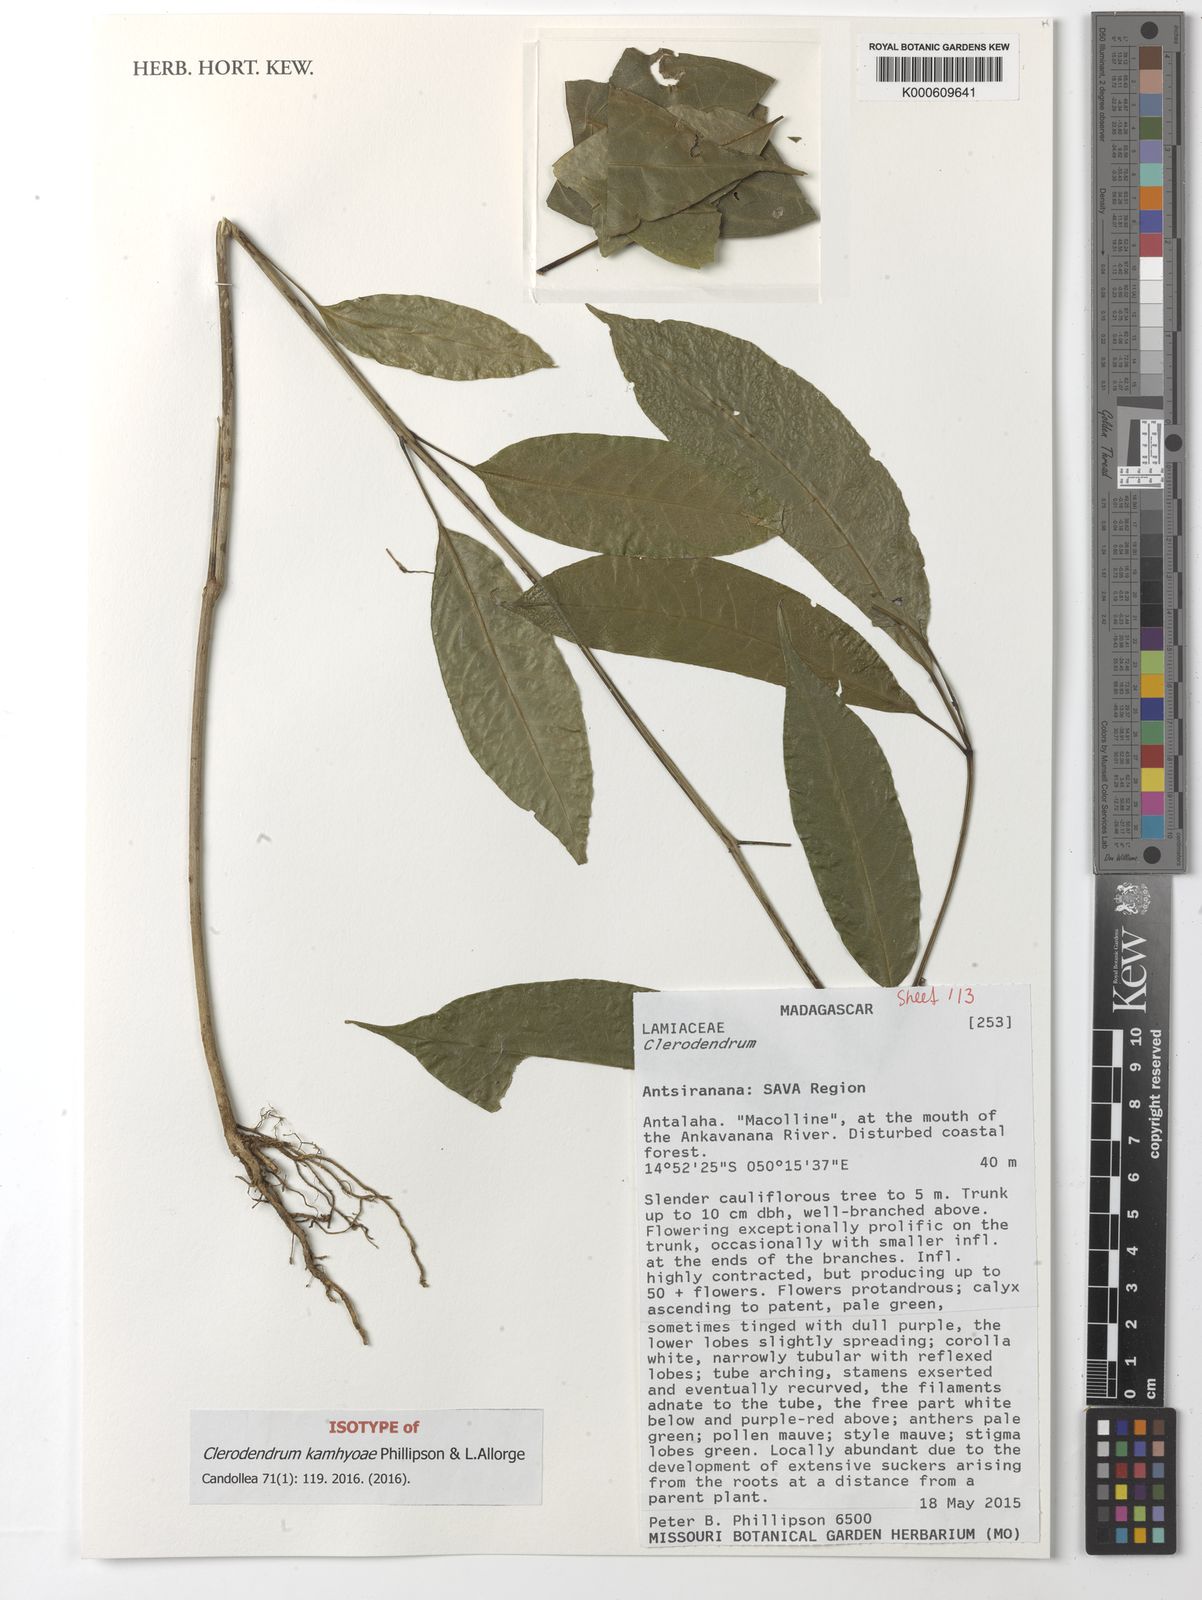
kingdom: Plantae
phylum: Tracheophyta
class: Magnoliopsida
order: Lamiales
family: Lamiaceae
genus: Clerodendrum
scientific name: Clerodendrum kamhyoae
